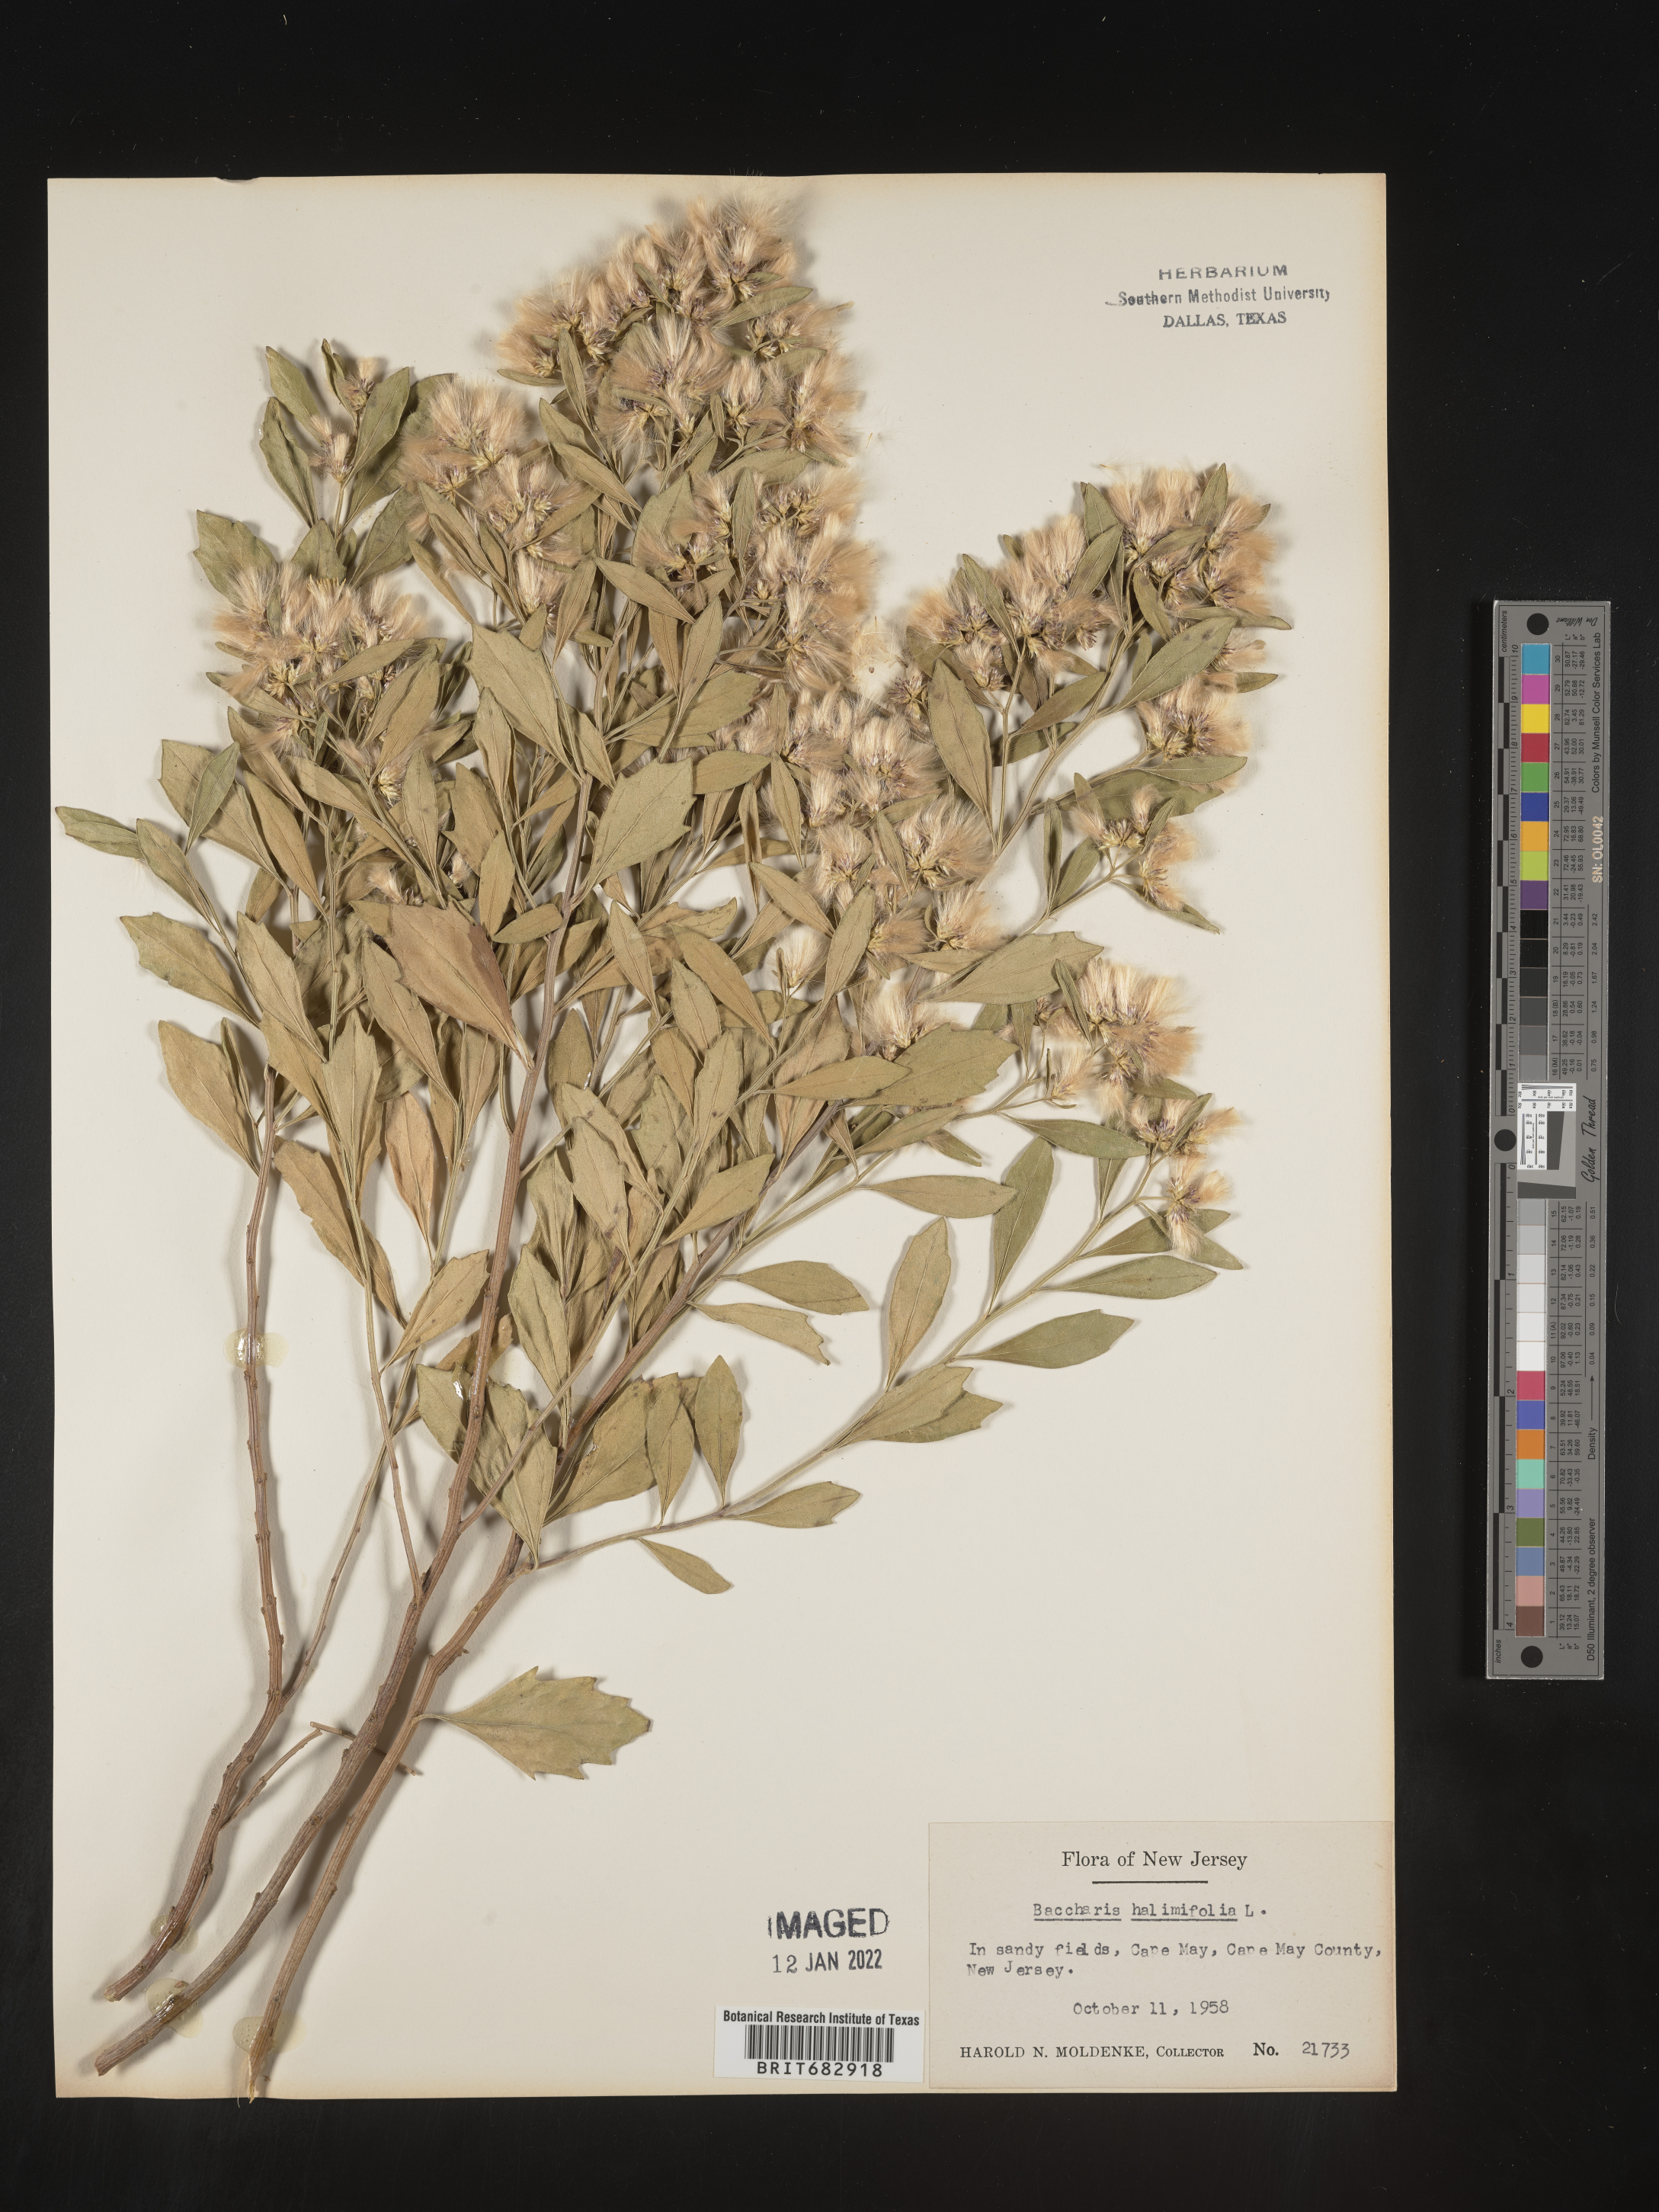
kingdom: Plantae
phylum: Tracheophyta
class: Magnoliopsida
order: Asterales
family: Asteraceae
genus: Nidorella
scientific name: Nidorella ivifolia
